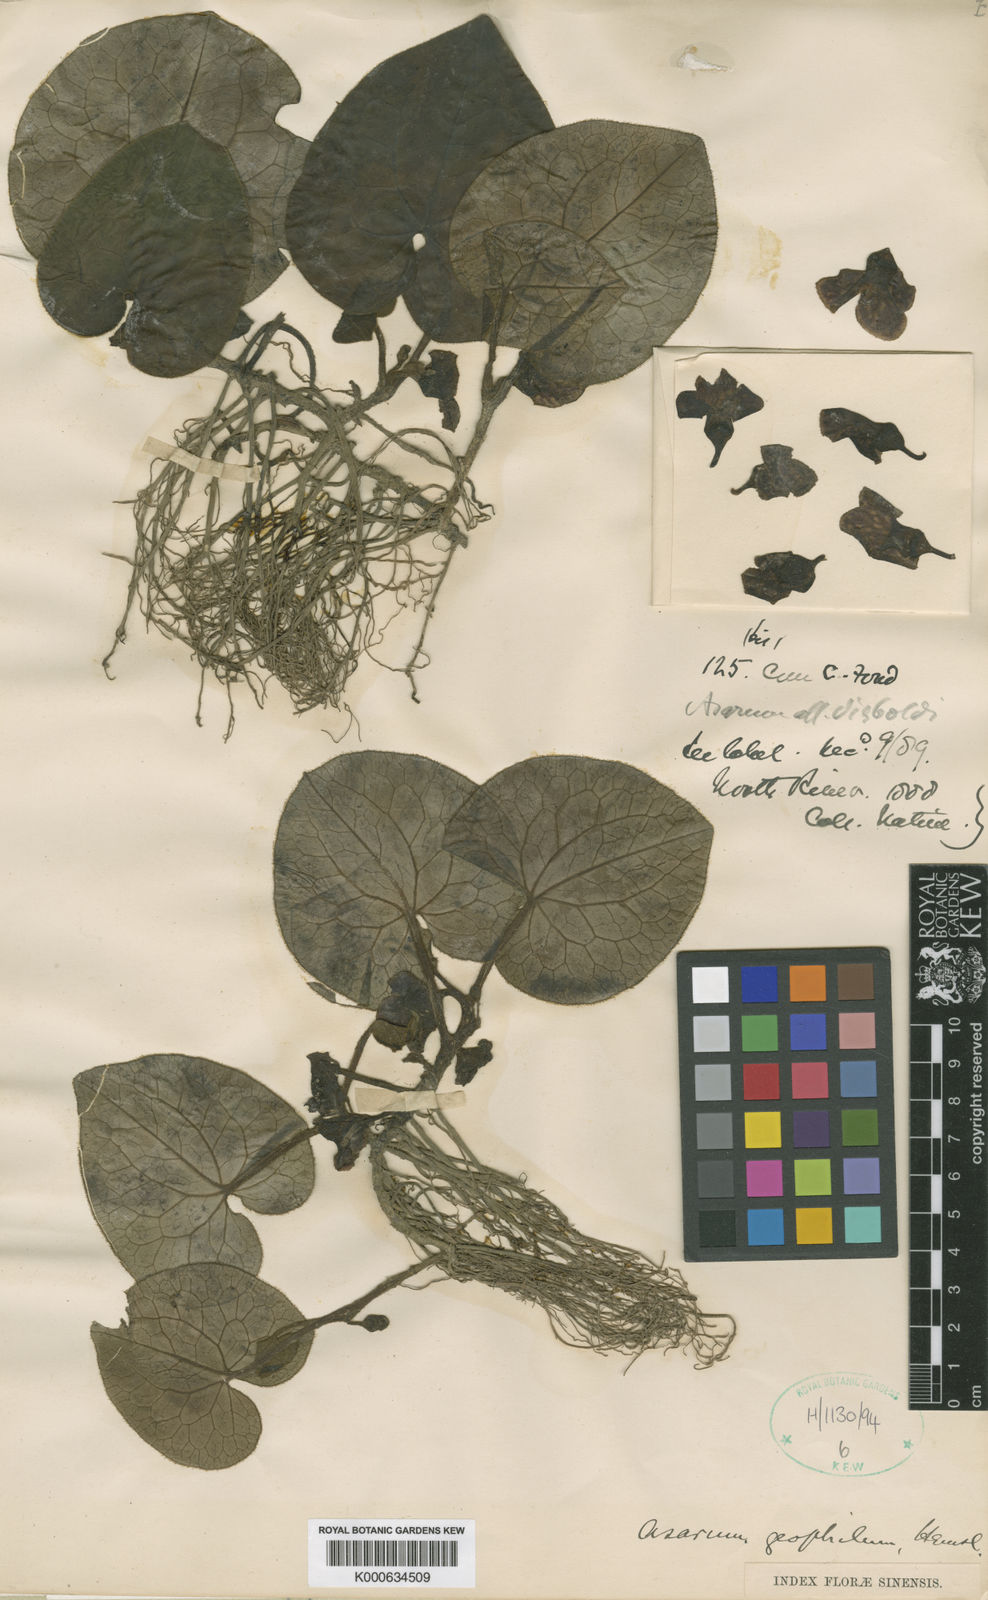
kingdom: Plantae
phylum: Tracheophyta
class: Magnoliopsida
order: Piperales
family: Aristolochiaceae
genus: Asarum
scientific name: Asarum geophilum
